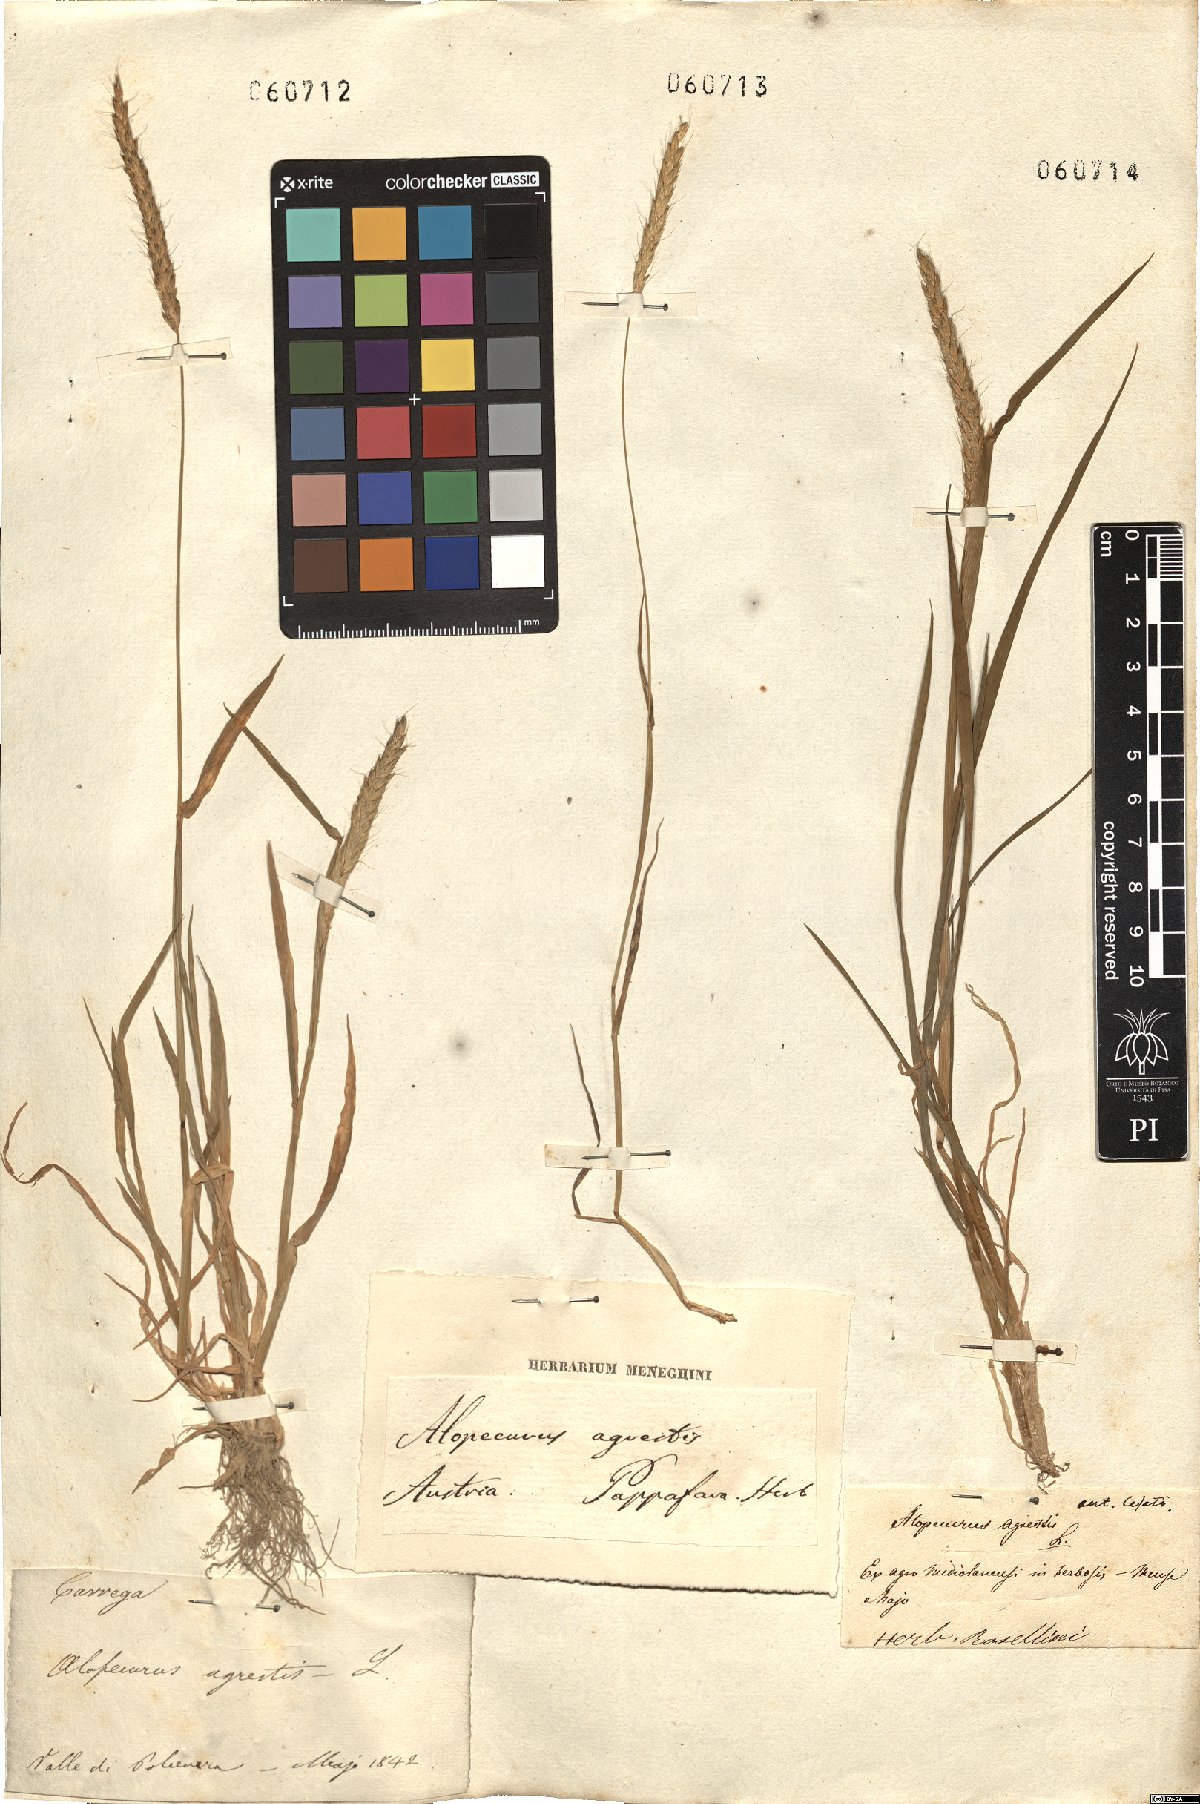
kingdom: Plantae
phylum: Tracheophyta
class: Liliopsida
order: Poales
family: Poaceae
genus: Alopecurus
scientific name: Alopecurus myosuroides
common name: Black-grass
